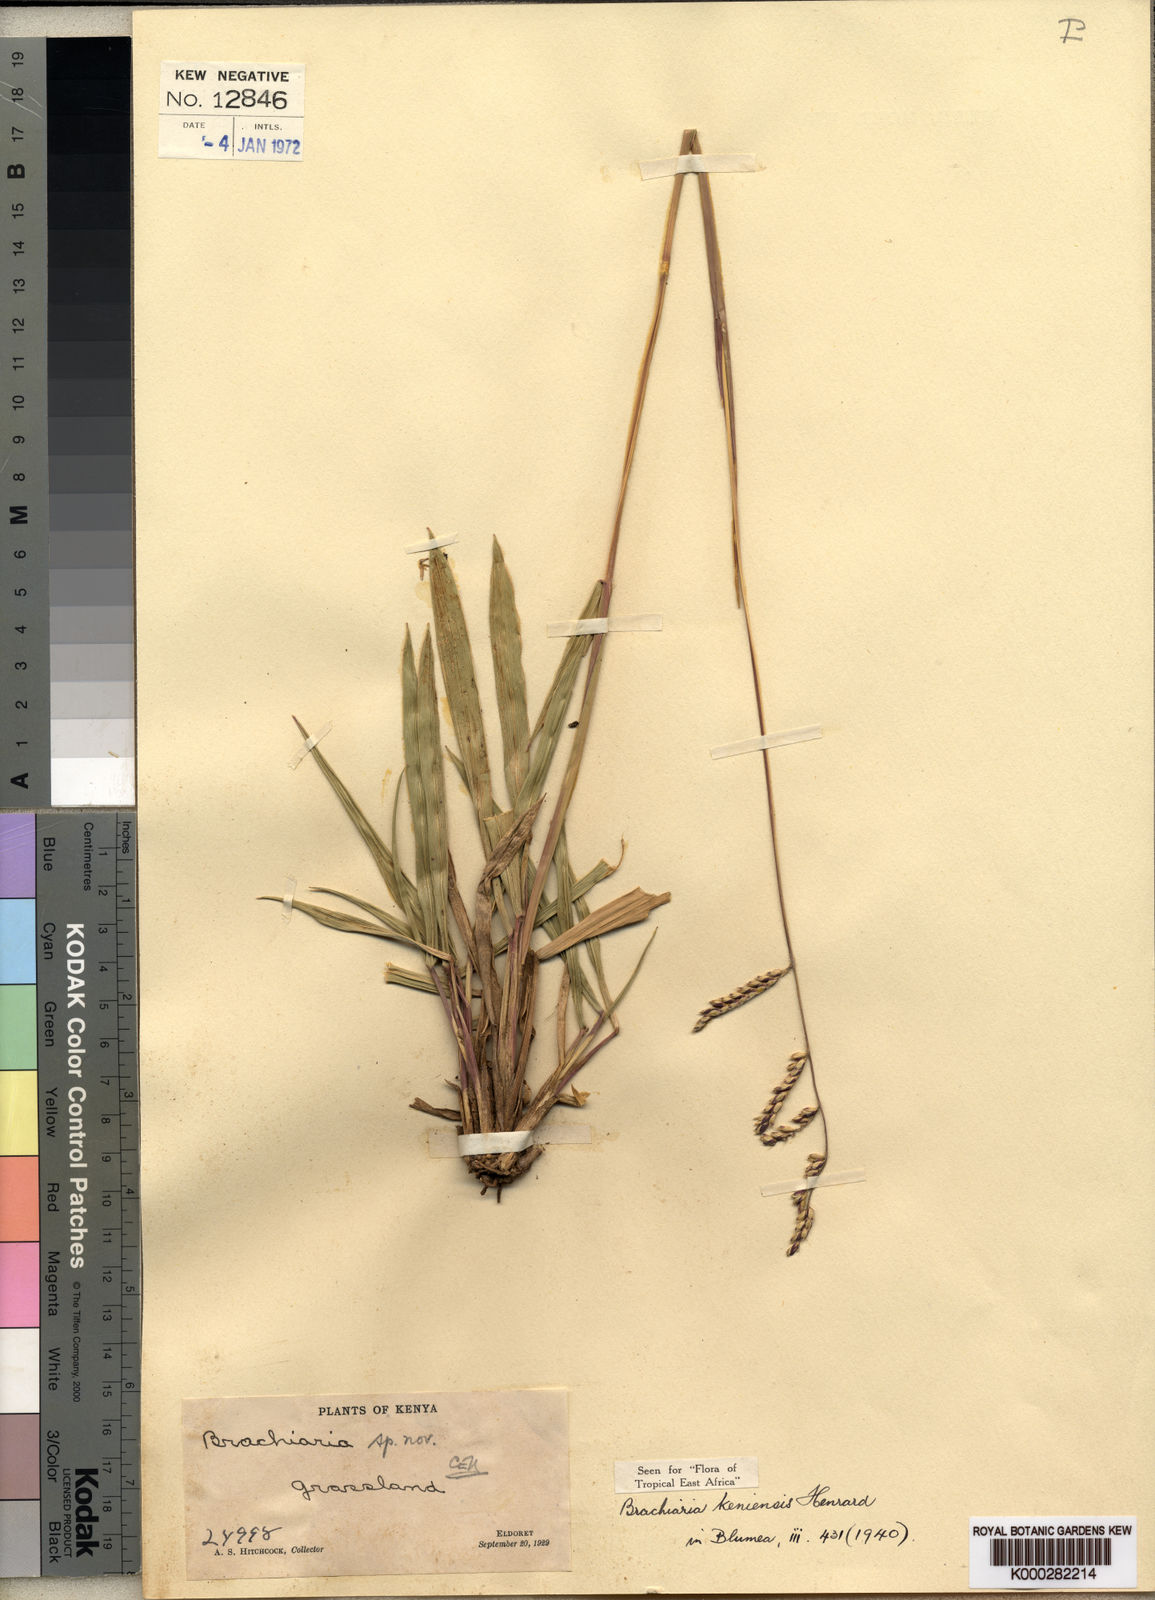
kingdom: Plantae
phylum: Tracheophyta
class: Liliopsida
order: Poales
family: Poaceae
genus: Urochloa
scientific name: Urochloa dictyoneura
